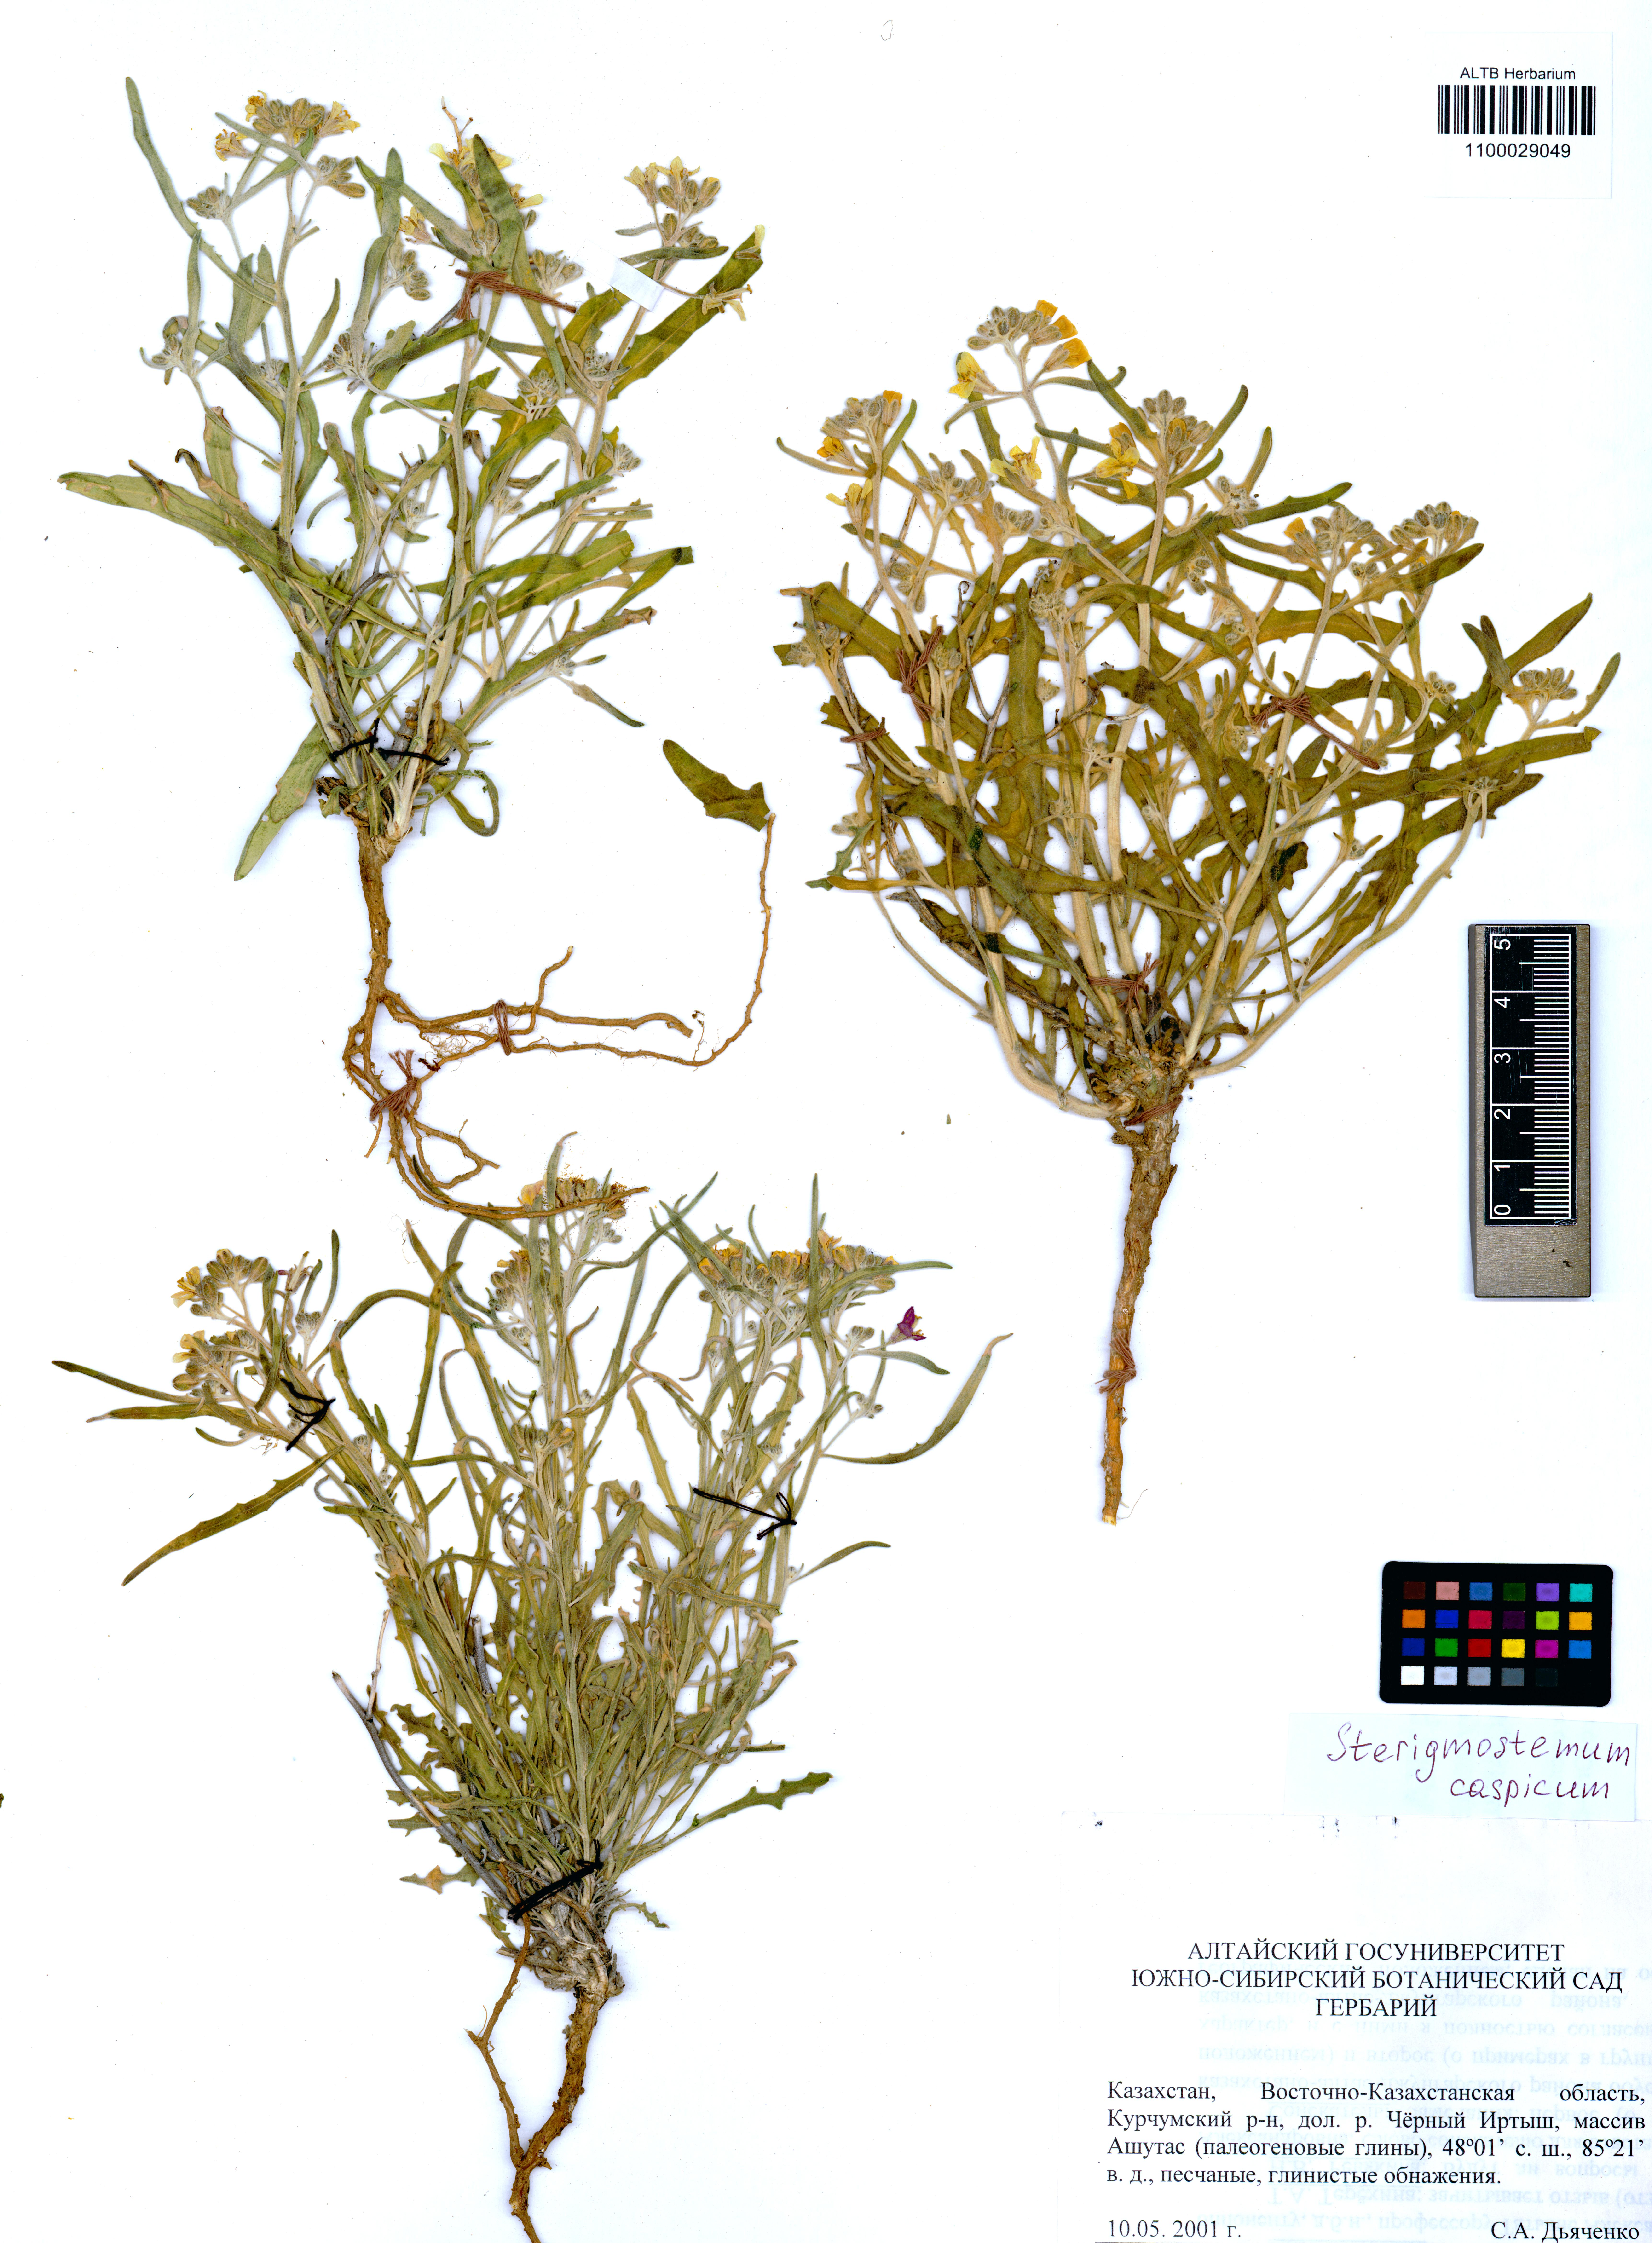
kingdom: Plantae
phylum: Tracheophyta
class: Magnoliopsida
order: Brassicales
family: Brassicaceae
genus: Sterigmostemum
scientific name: Sterigmostemum caspicum
